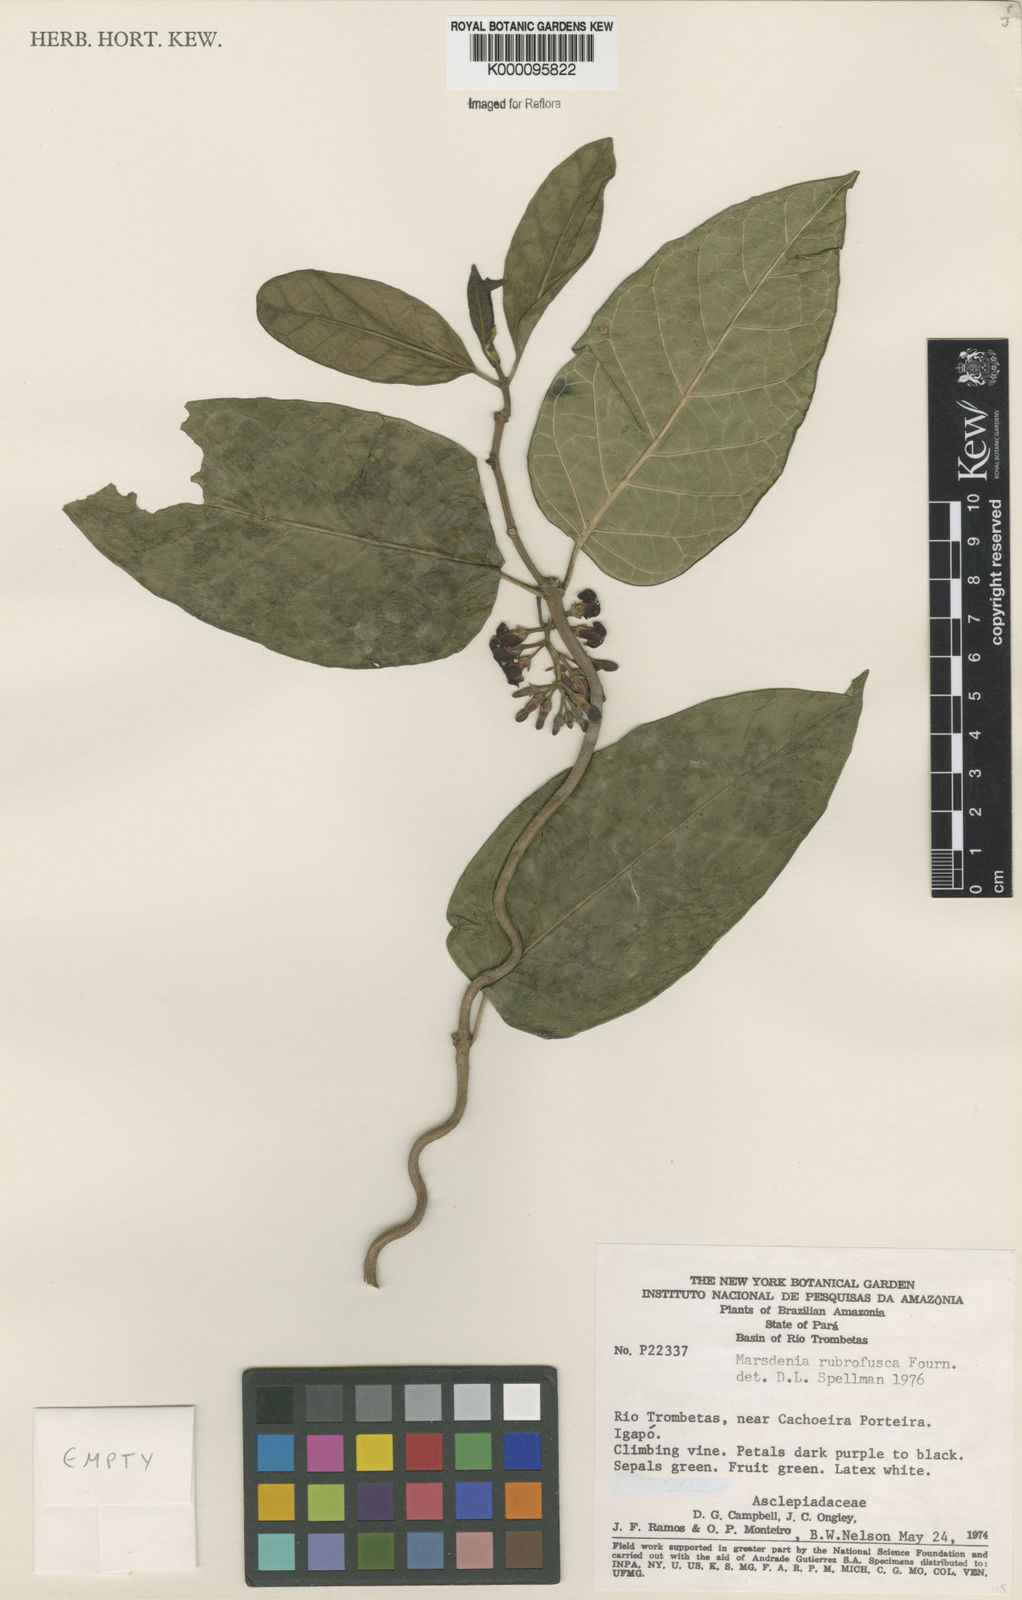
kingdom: Plantae
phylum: Tracheophyta
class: Magnoliopsida
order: Gentianales
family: Apocynaceae
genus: Ruehssia
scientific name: Ruehssia rubrofusca
